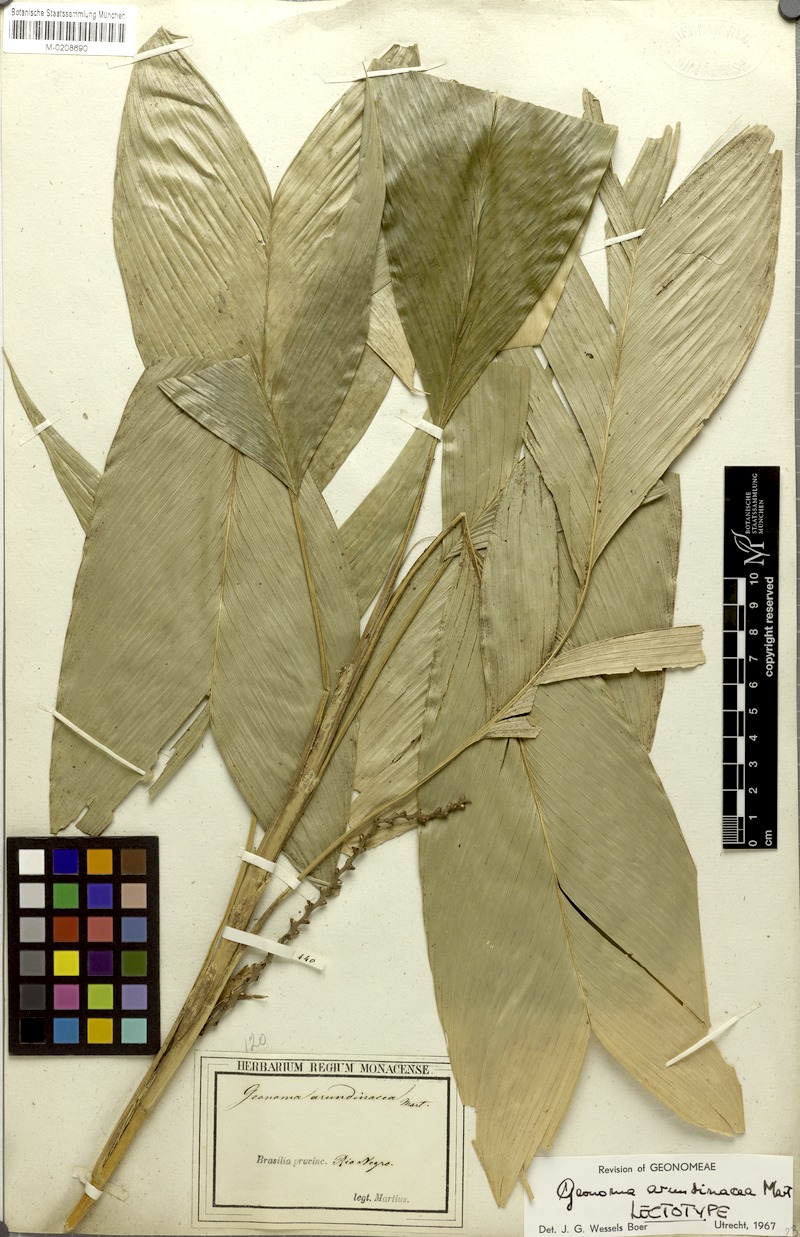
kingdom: Plantae
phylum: Tracheophyta
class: Liliopsida
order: Arecales
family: Arecaceae
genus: Geonoma
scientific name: Geonoma stricta
